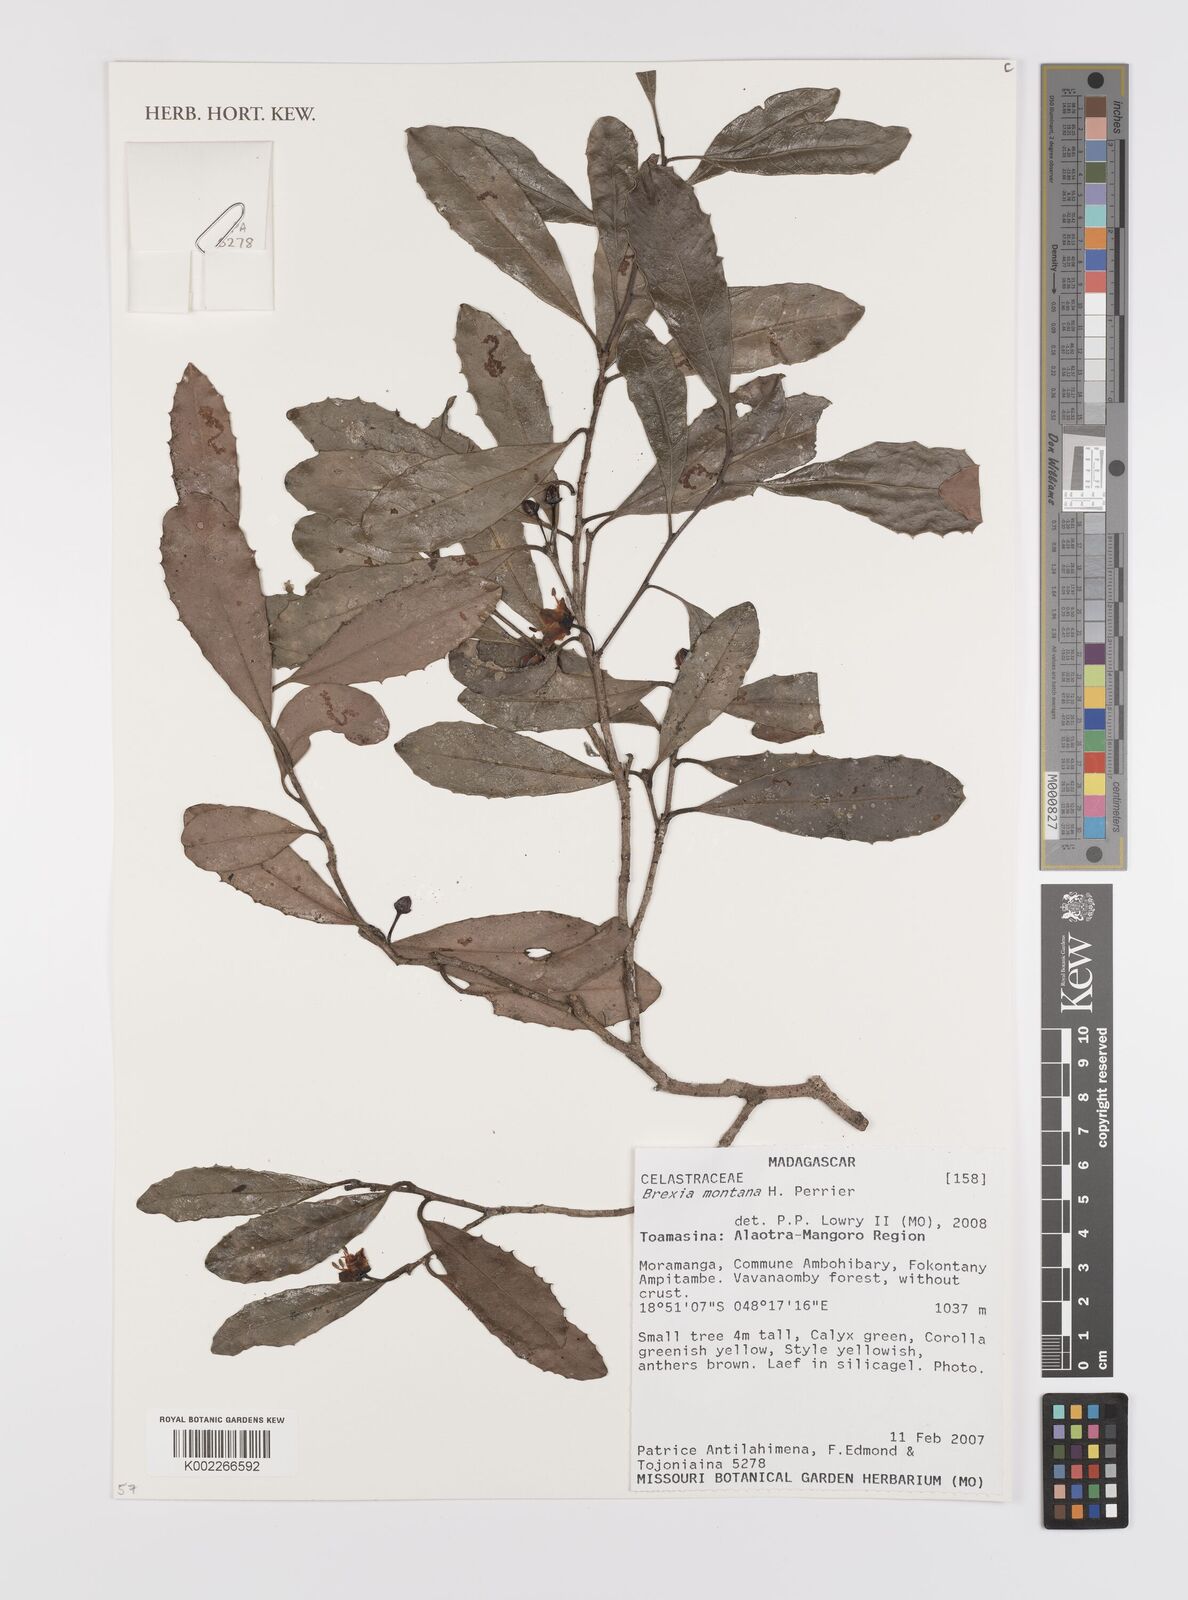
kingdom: Plantae
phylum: Tracheophyta
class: Magnoliopsida
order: Celastrales
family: Celastraceae
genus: Brexia
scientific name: Brexia montana
